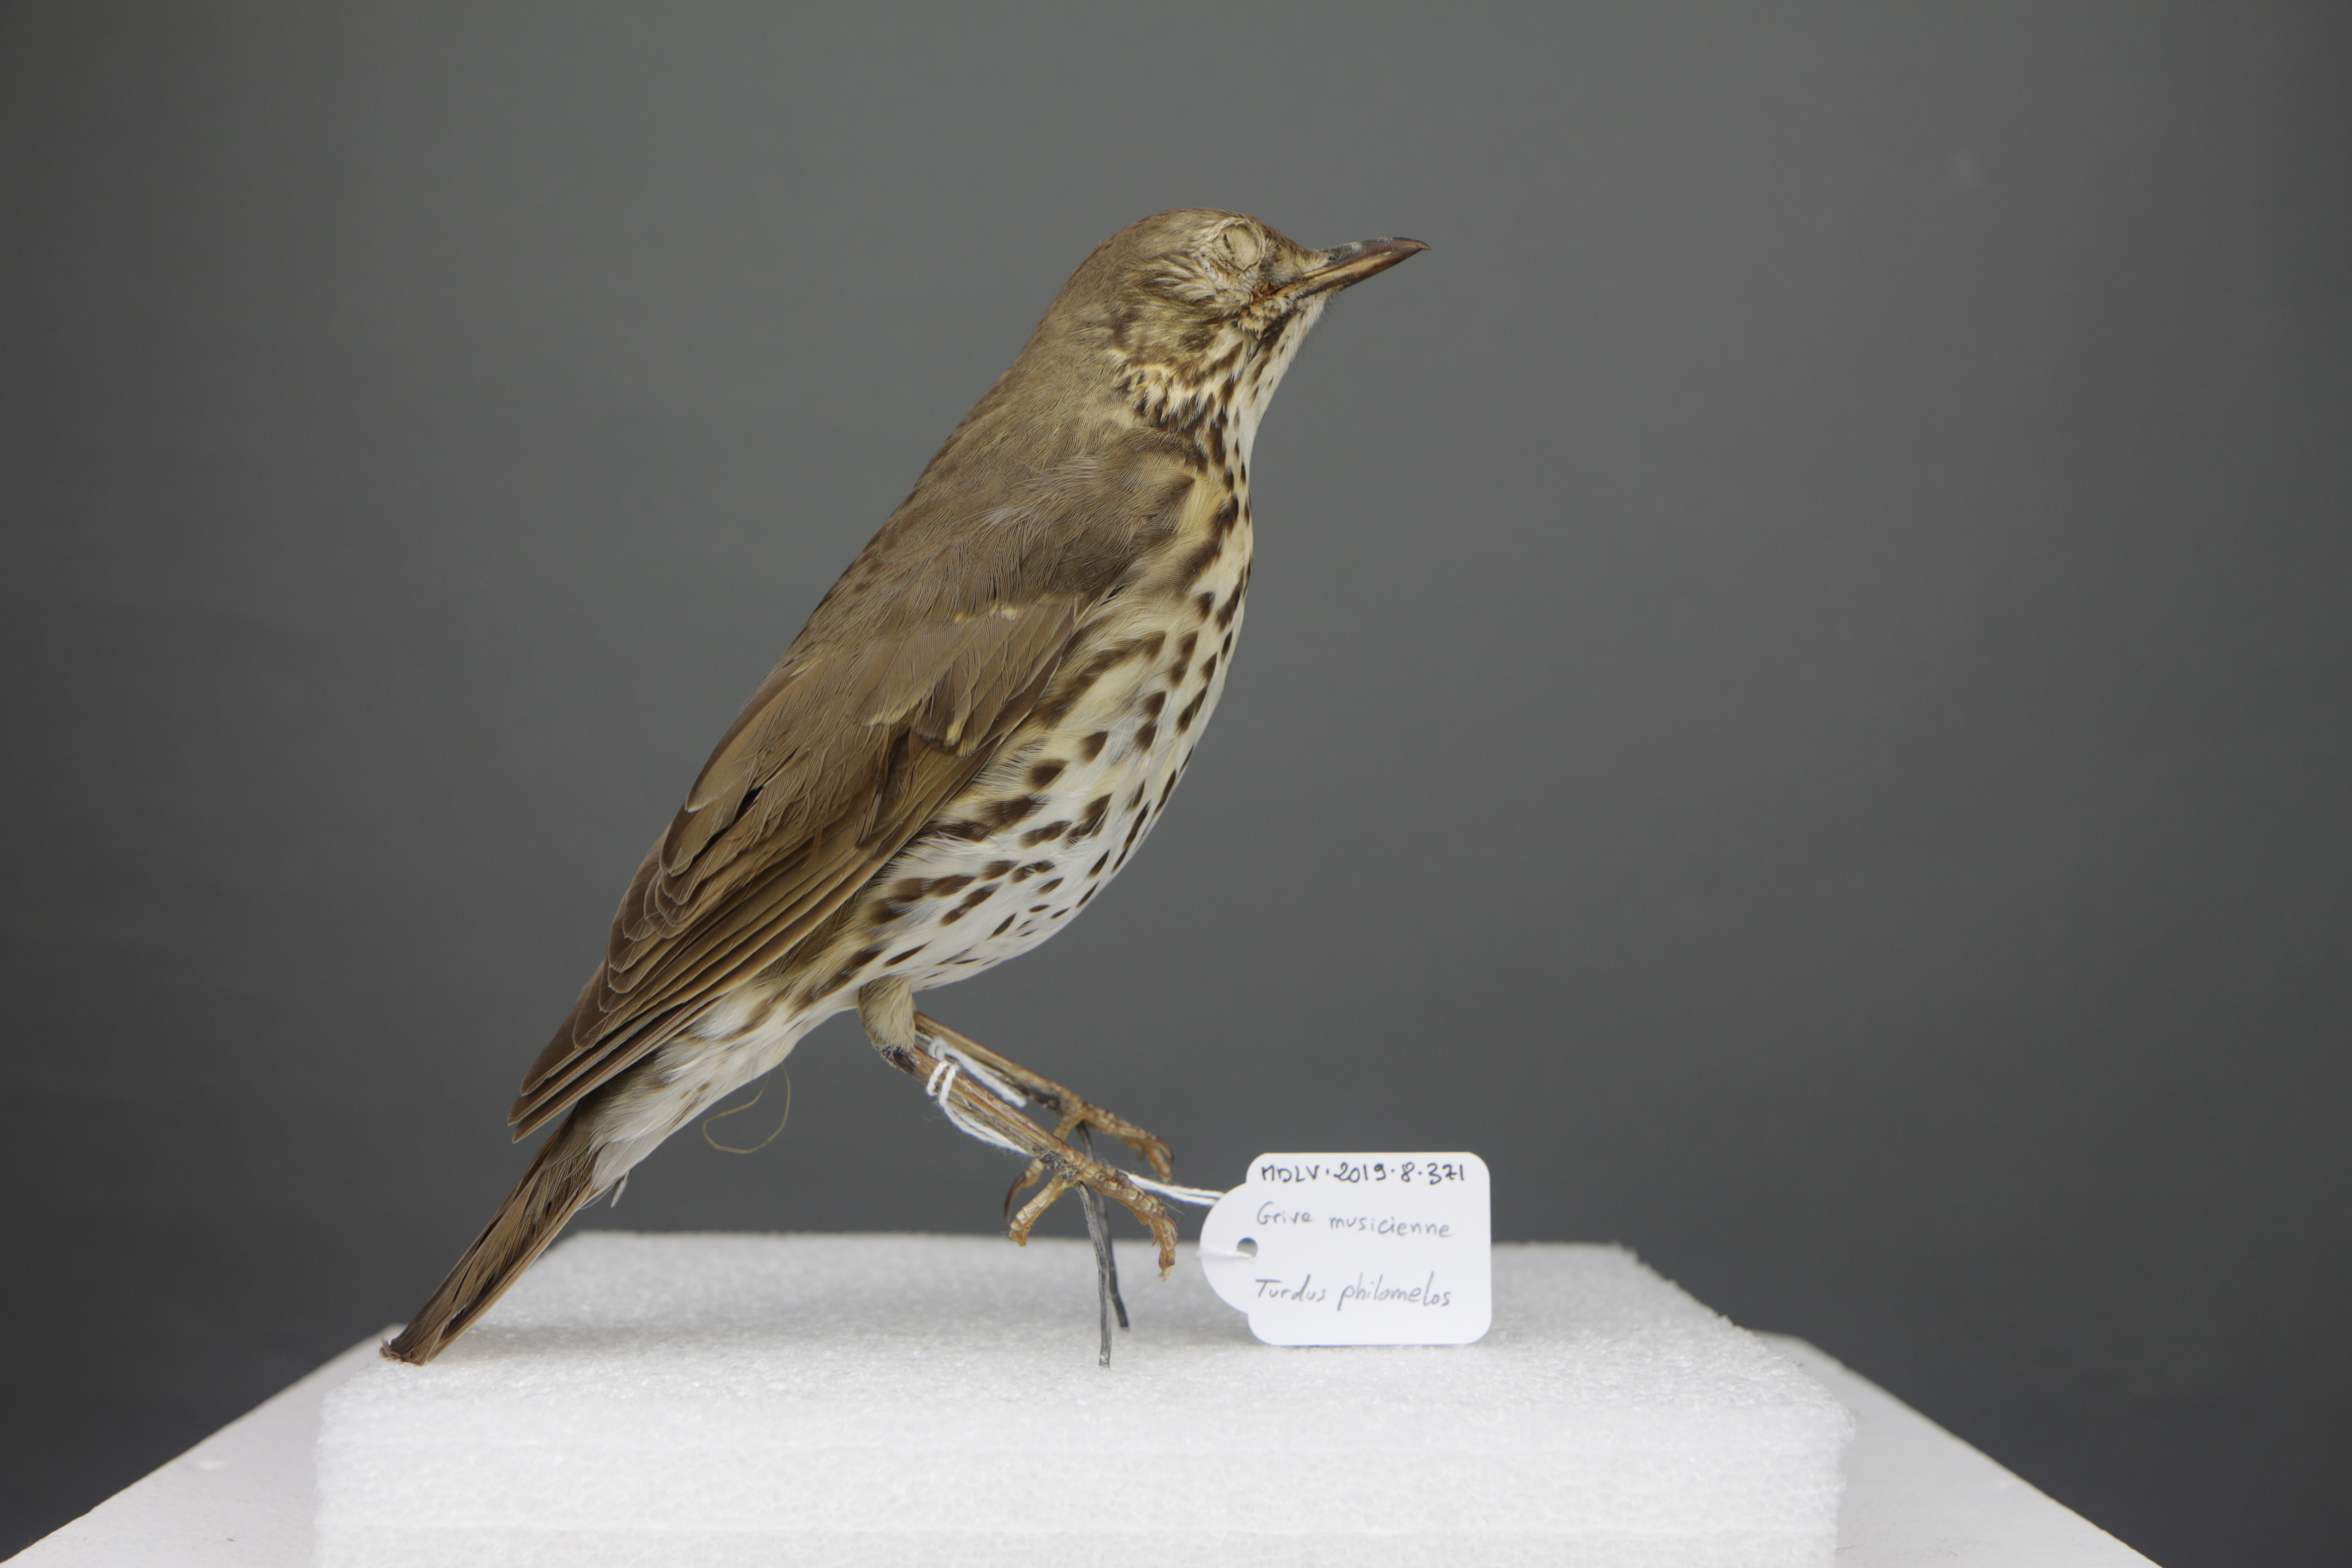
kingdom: Animalia
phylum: Chordata
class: Aves
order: Passeriformes
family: Turdidae
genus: Turdus
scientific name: Turdus philomelos
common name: Song thrush
